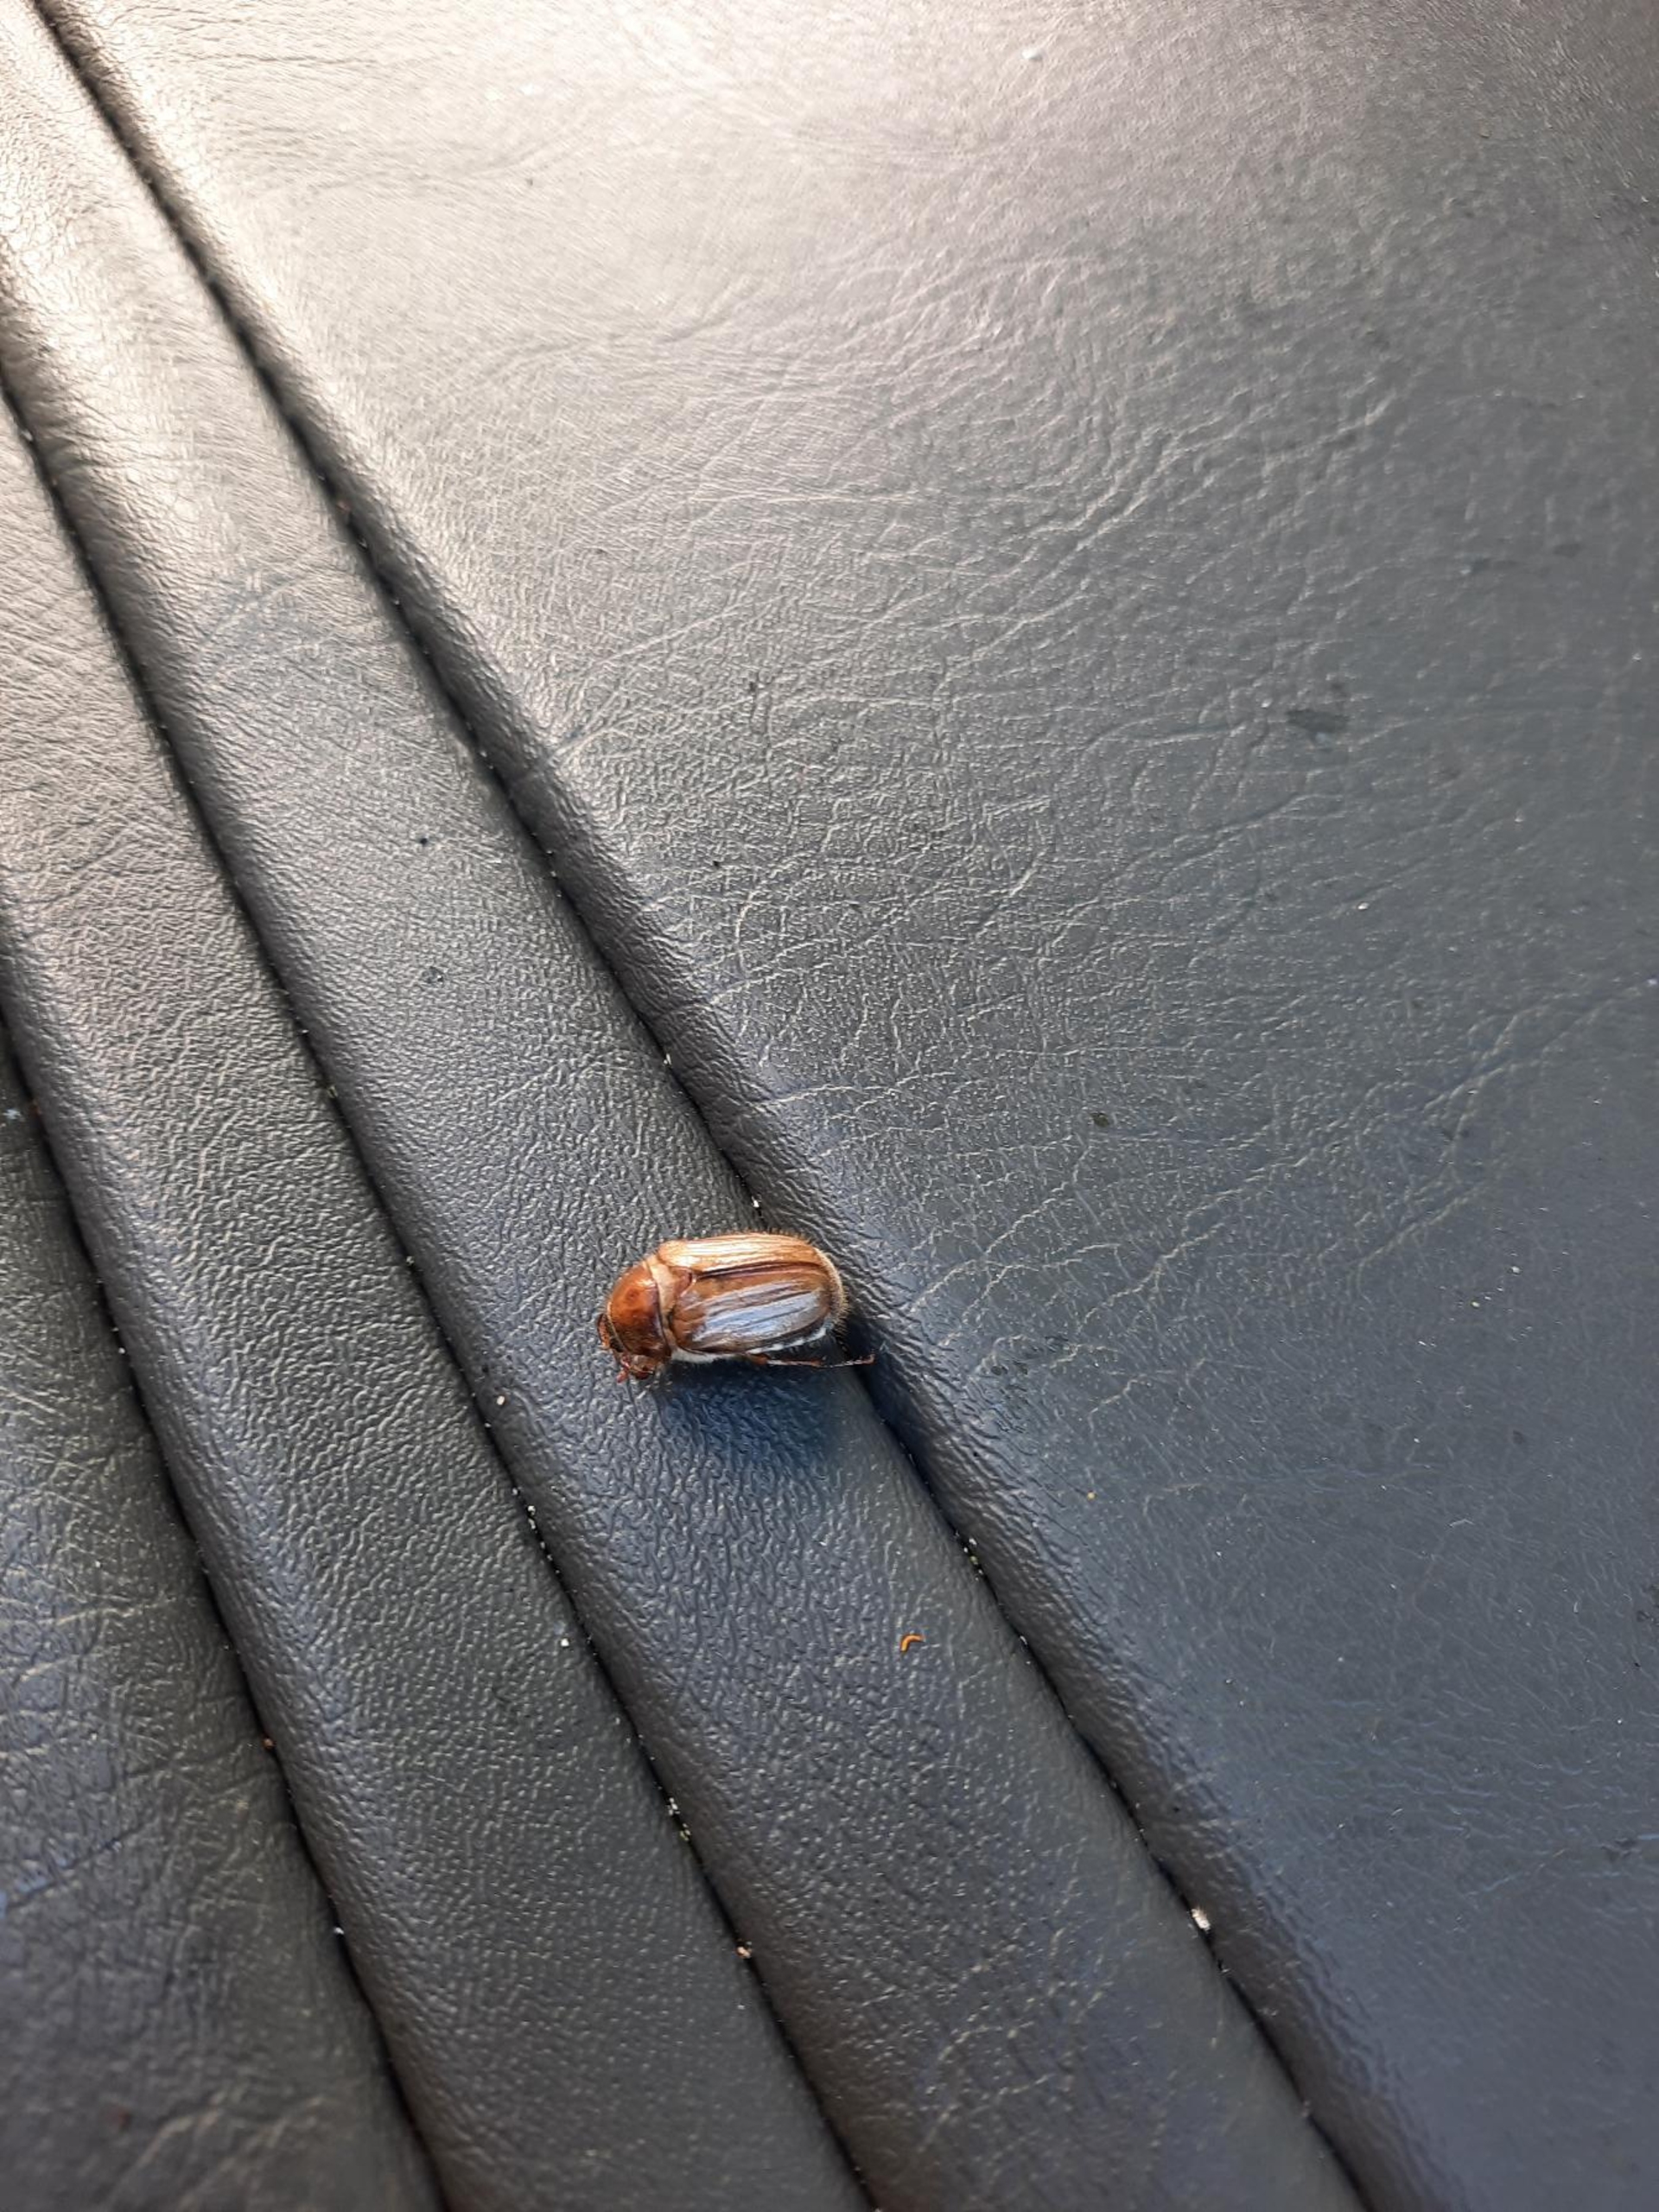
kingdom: Animalia
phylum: Arthropoda
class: Insecta
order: Coleoptera
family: Scarabaeidae
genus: Amphimallon
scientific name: Amphimallon solstitiale
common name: Sankthansoldenborre
